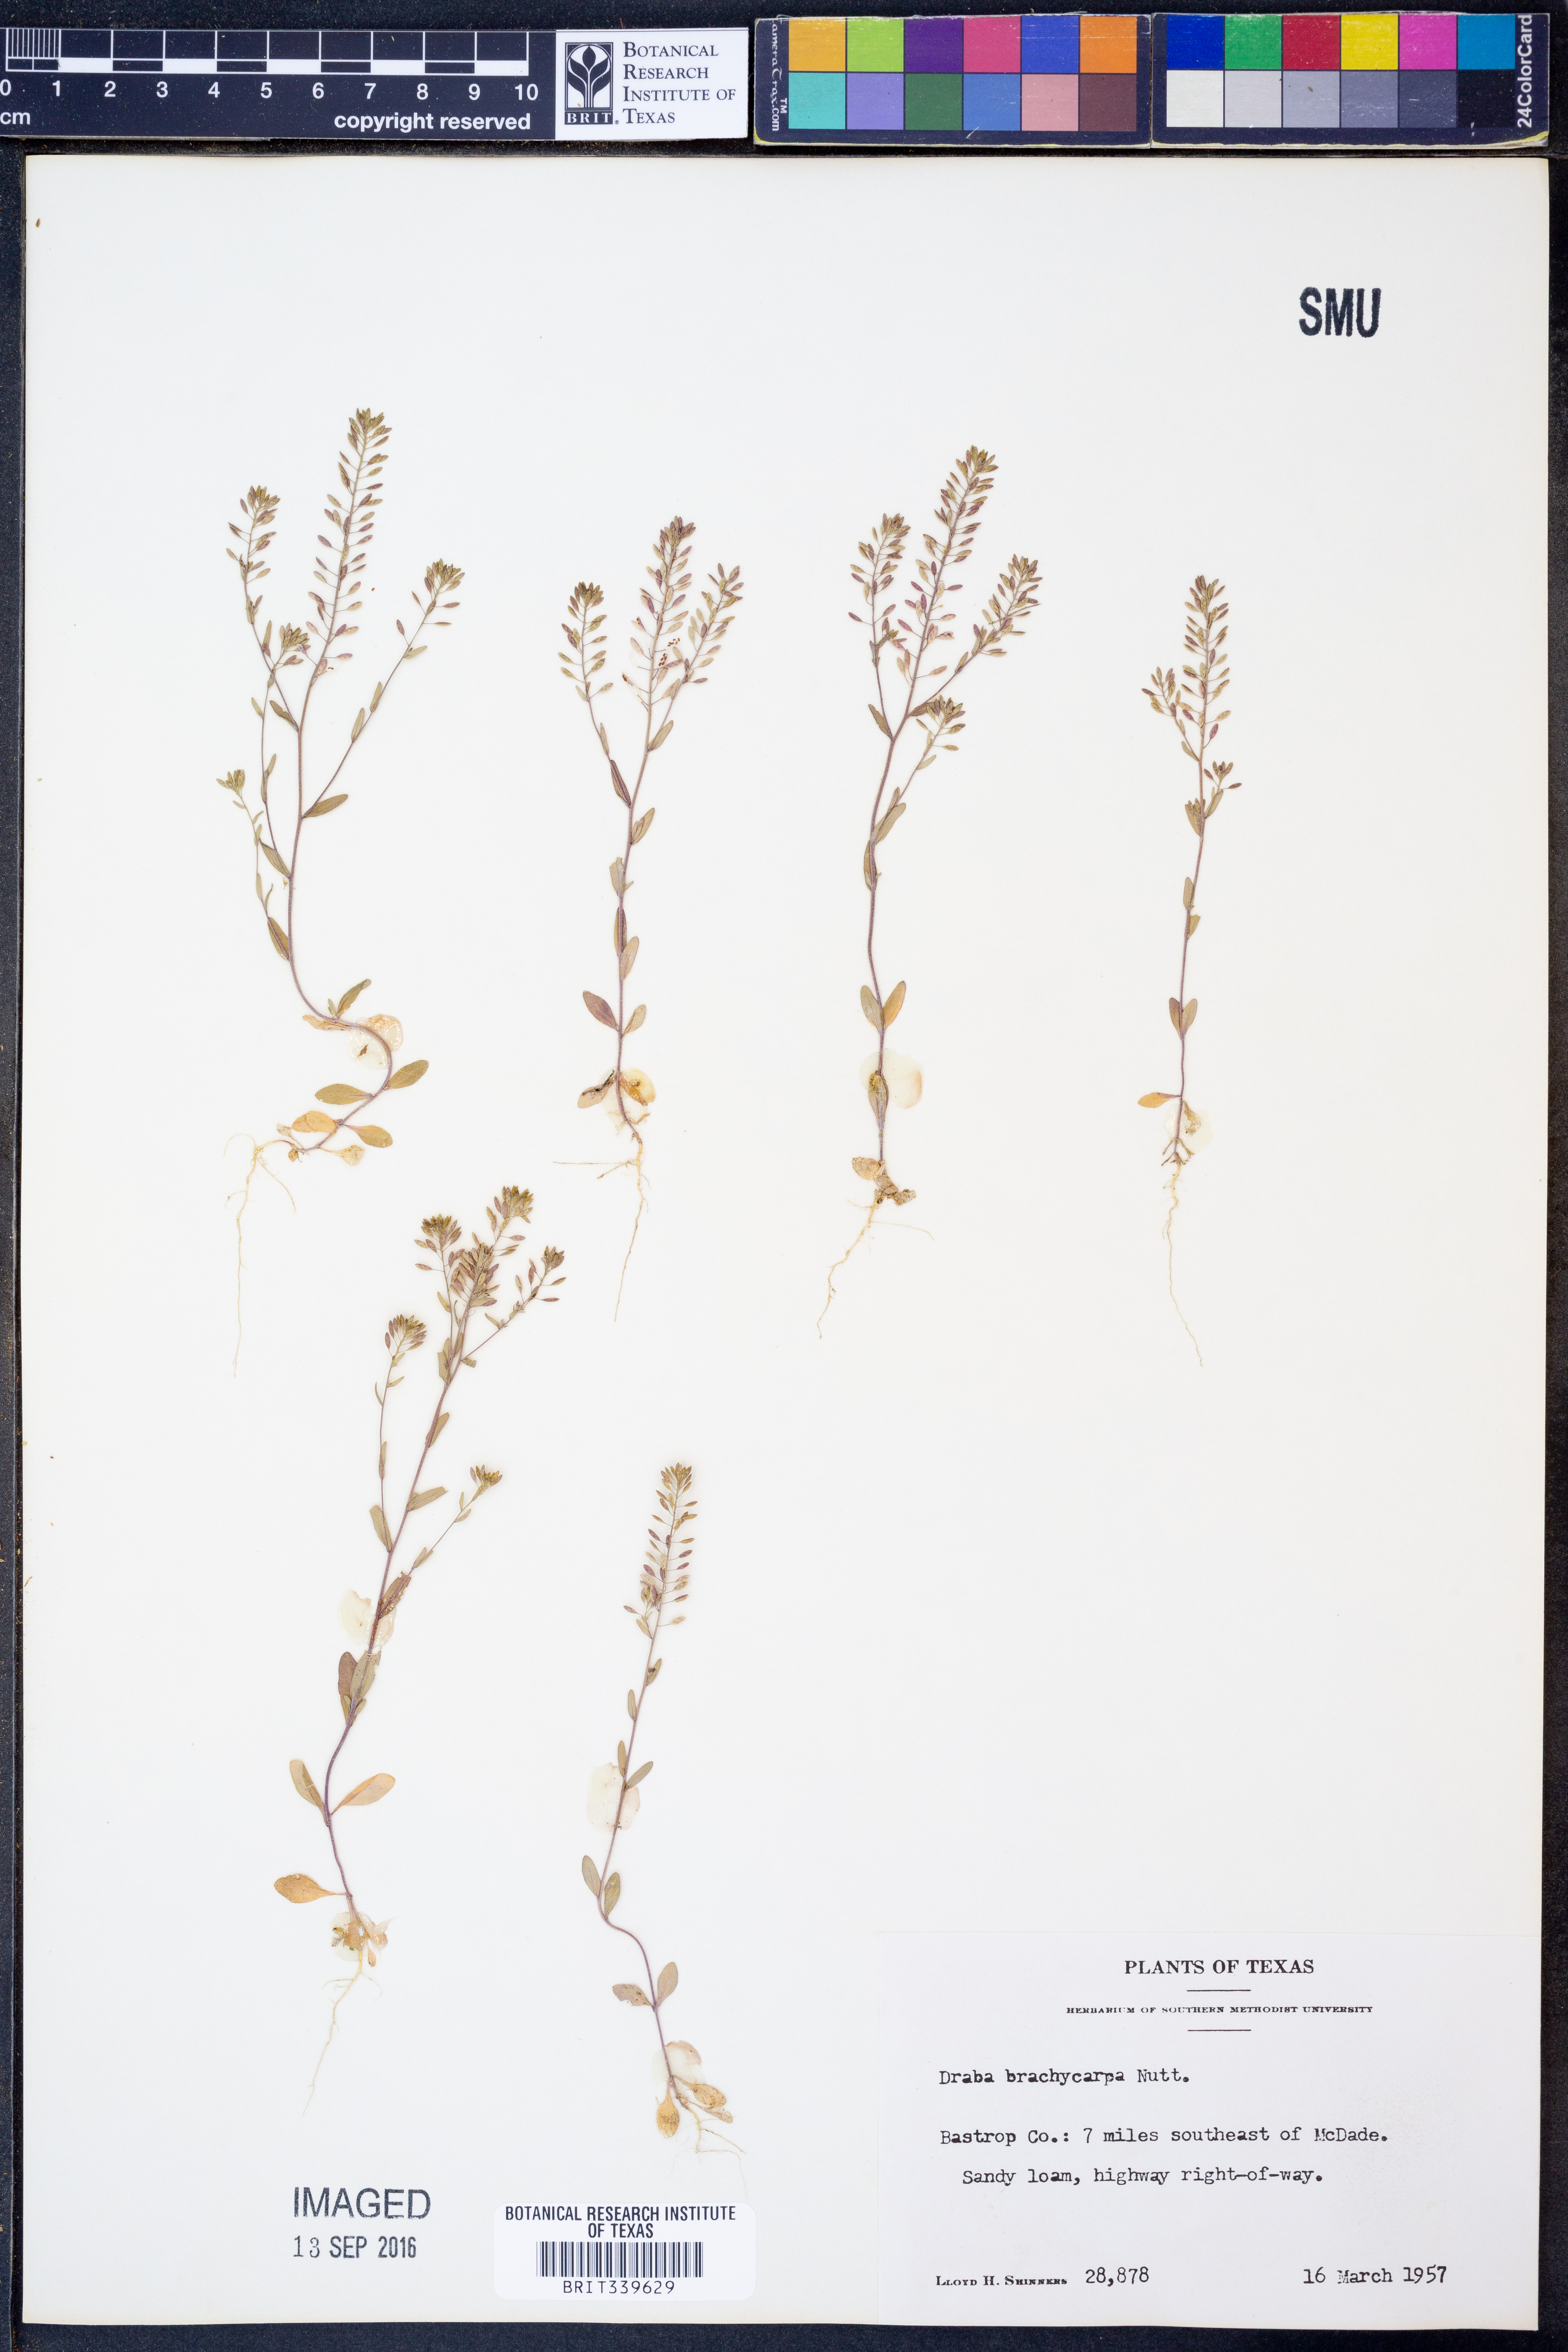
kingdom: Plantae
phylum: Tracheophyta
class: Magnoliopsida
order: Brassicales
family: Brassicaceae
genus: Abdra
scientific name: Abdra brachycarpa
